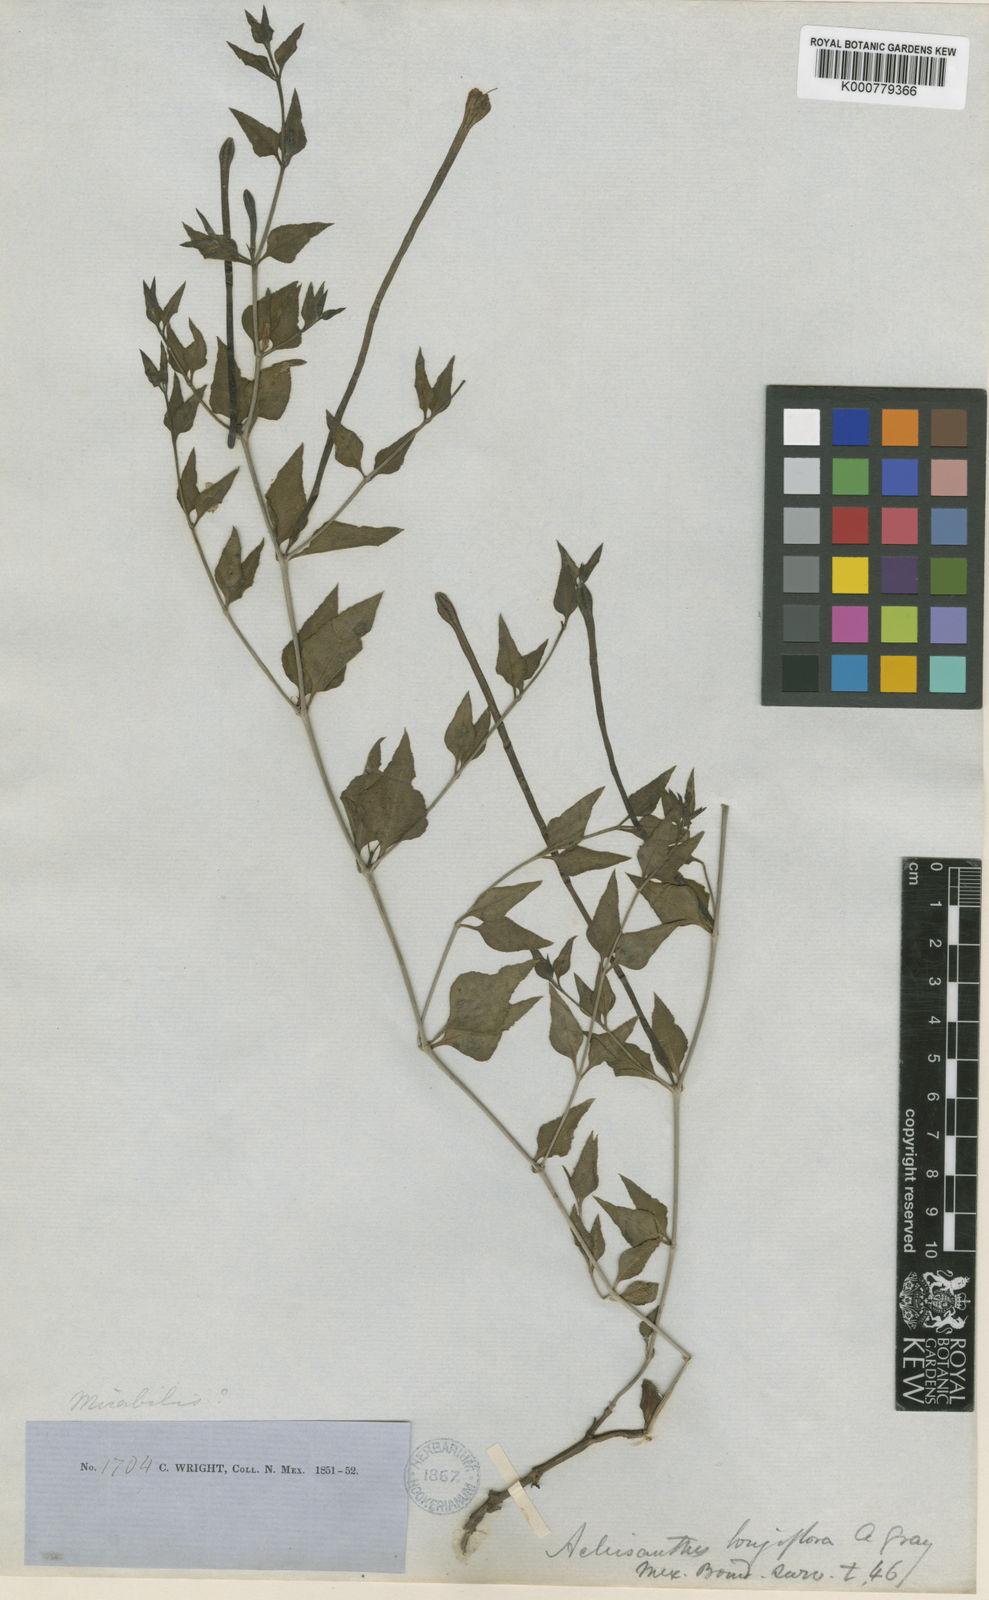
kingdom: Plantae
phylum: Tracheophyta
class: Magnoliopsida
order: Caryophyllales
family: Nyctaginaceae
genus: Acleisanthes
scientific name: Acleisanthes longiflora
